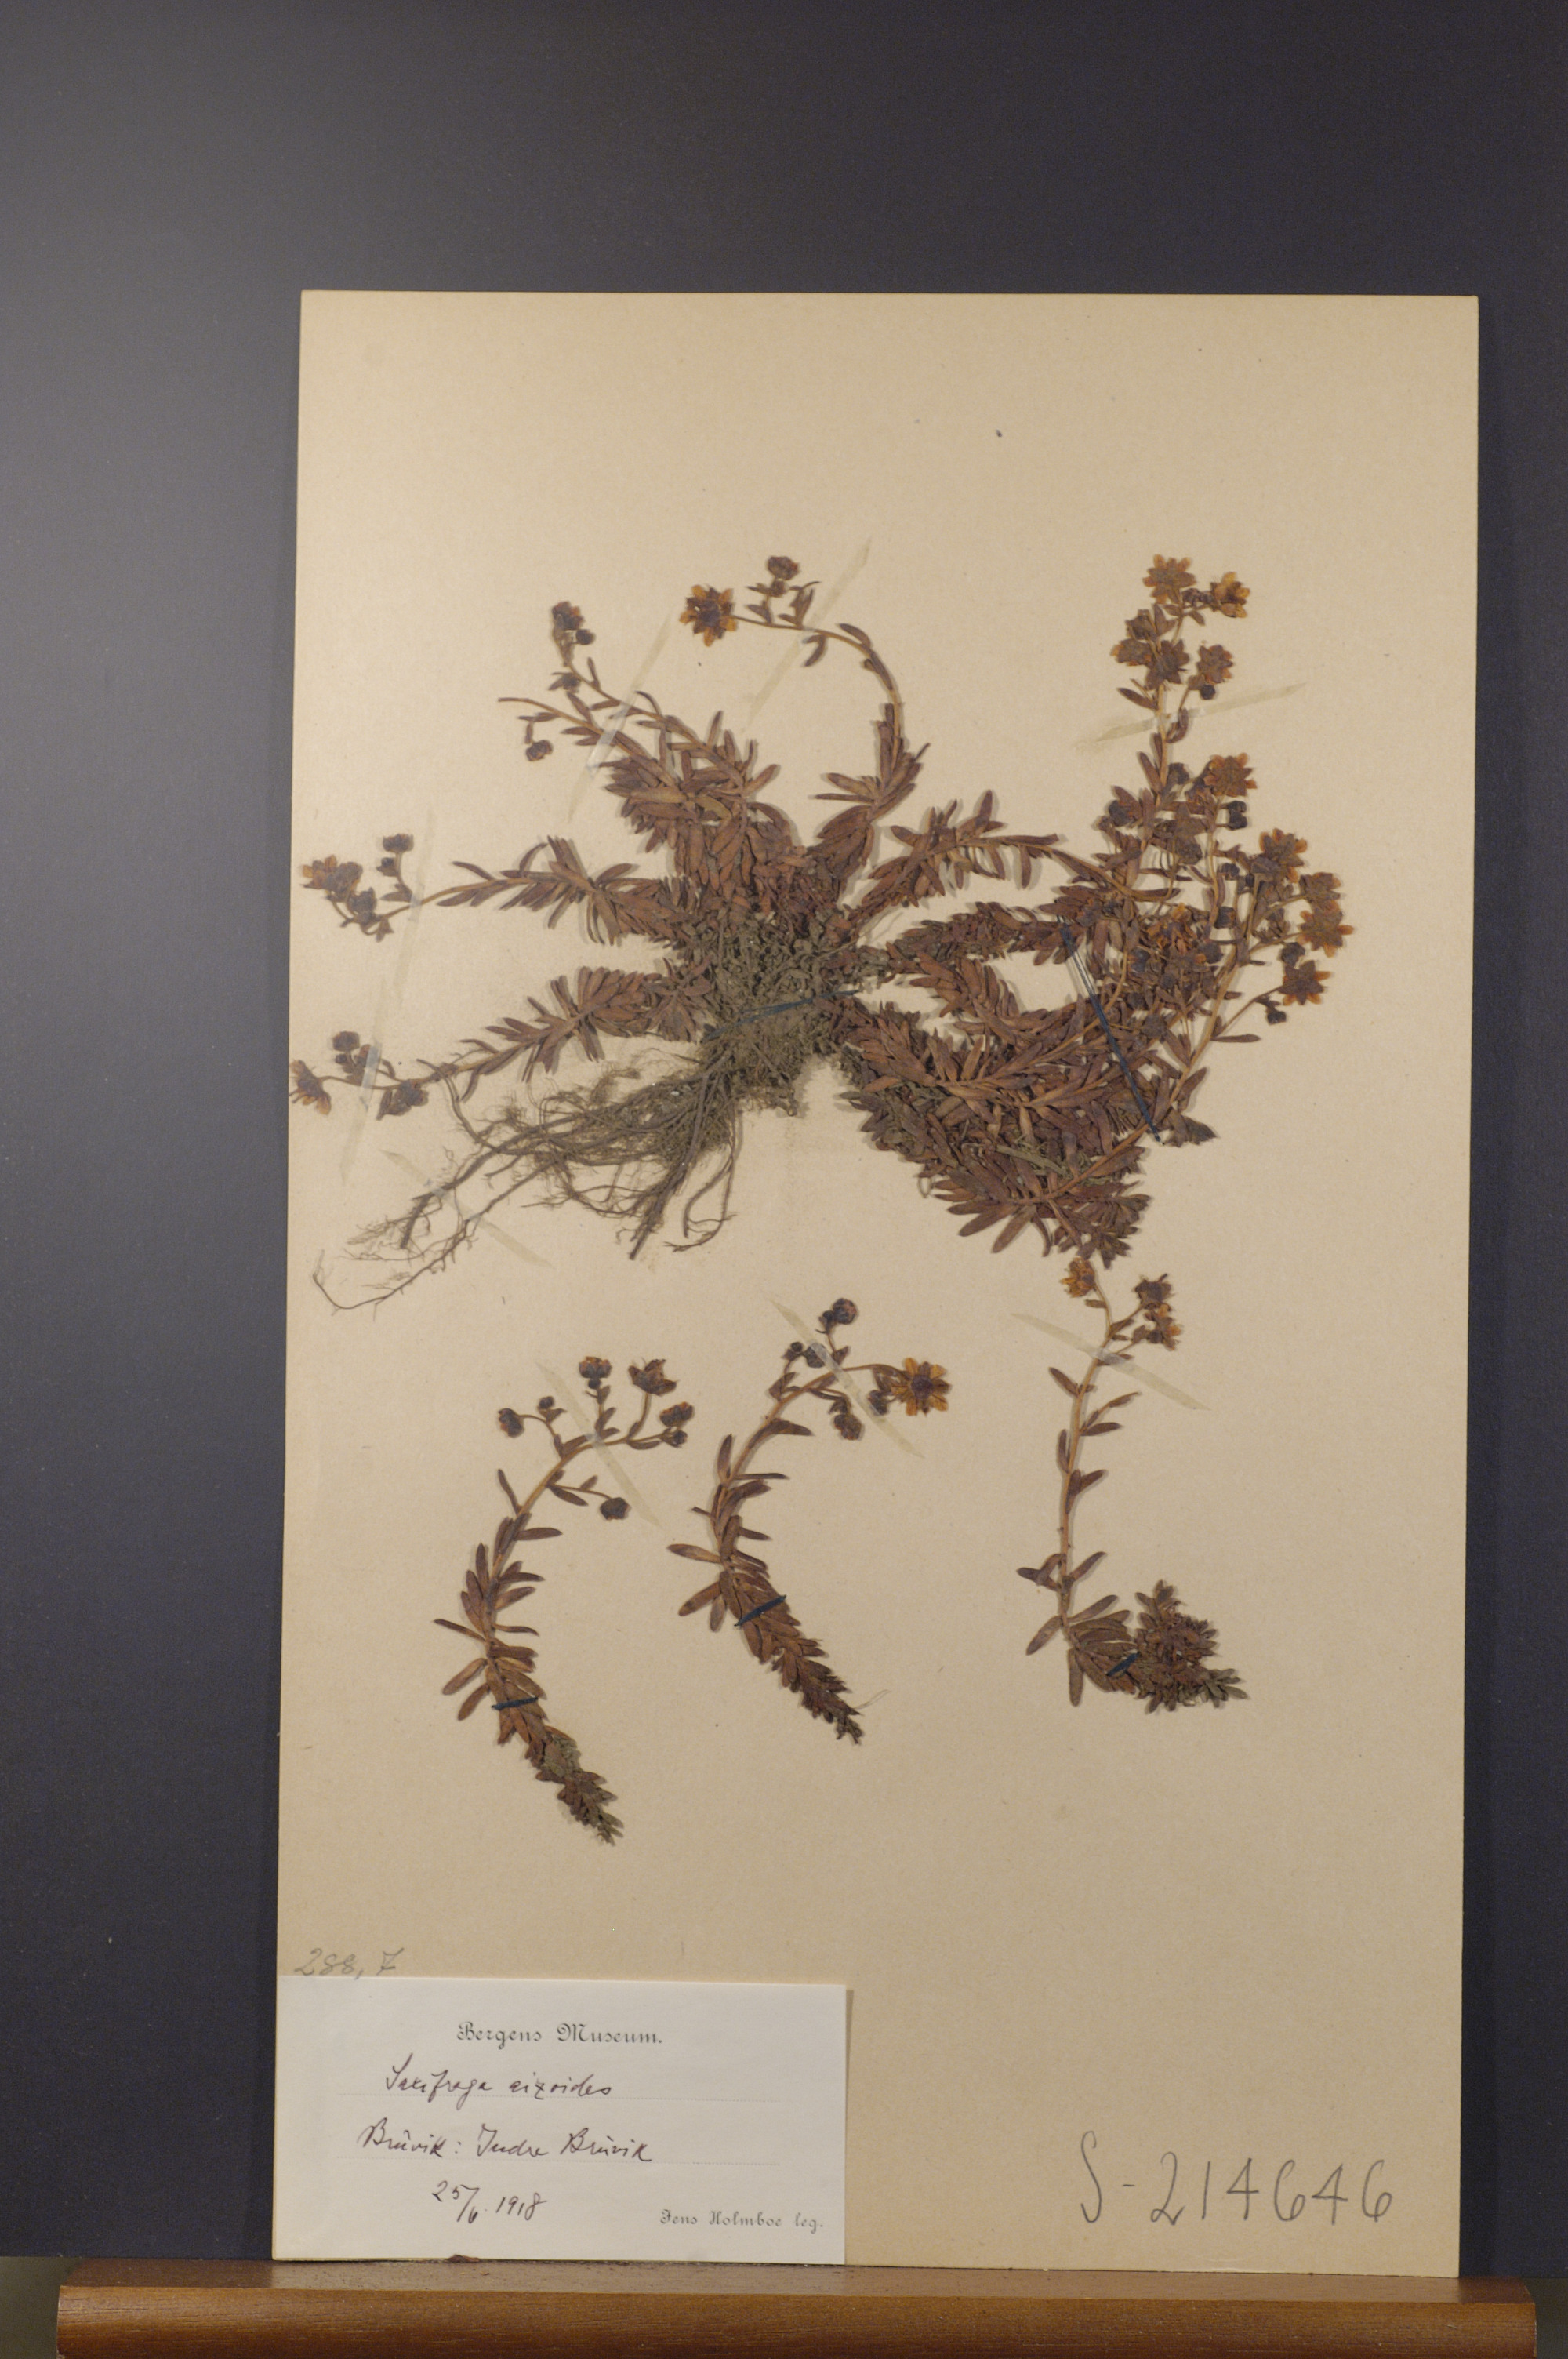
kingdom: Plantae
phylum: Tracheophyta
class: Magnoliopsida
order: Saxifragales
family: Saxifragaceae
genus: Saxifraga
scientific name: Saxifraga aizoides
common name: Yellow mountain saxifrage
